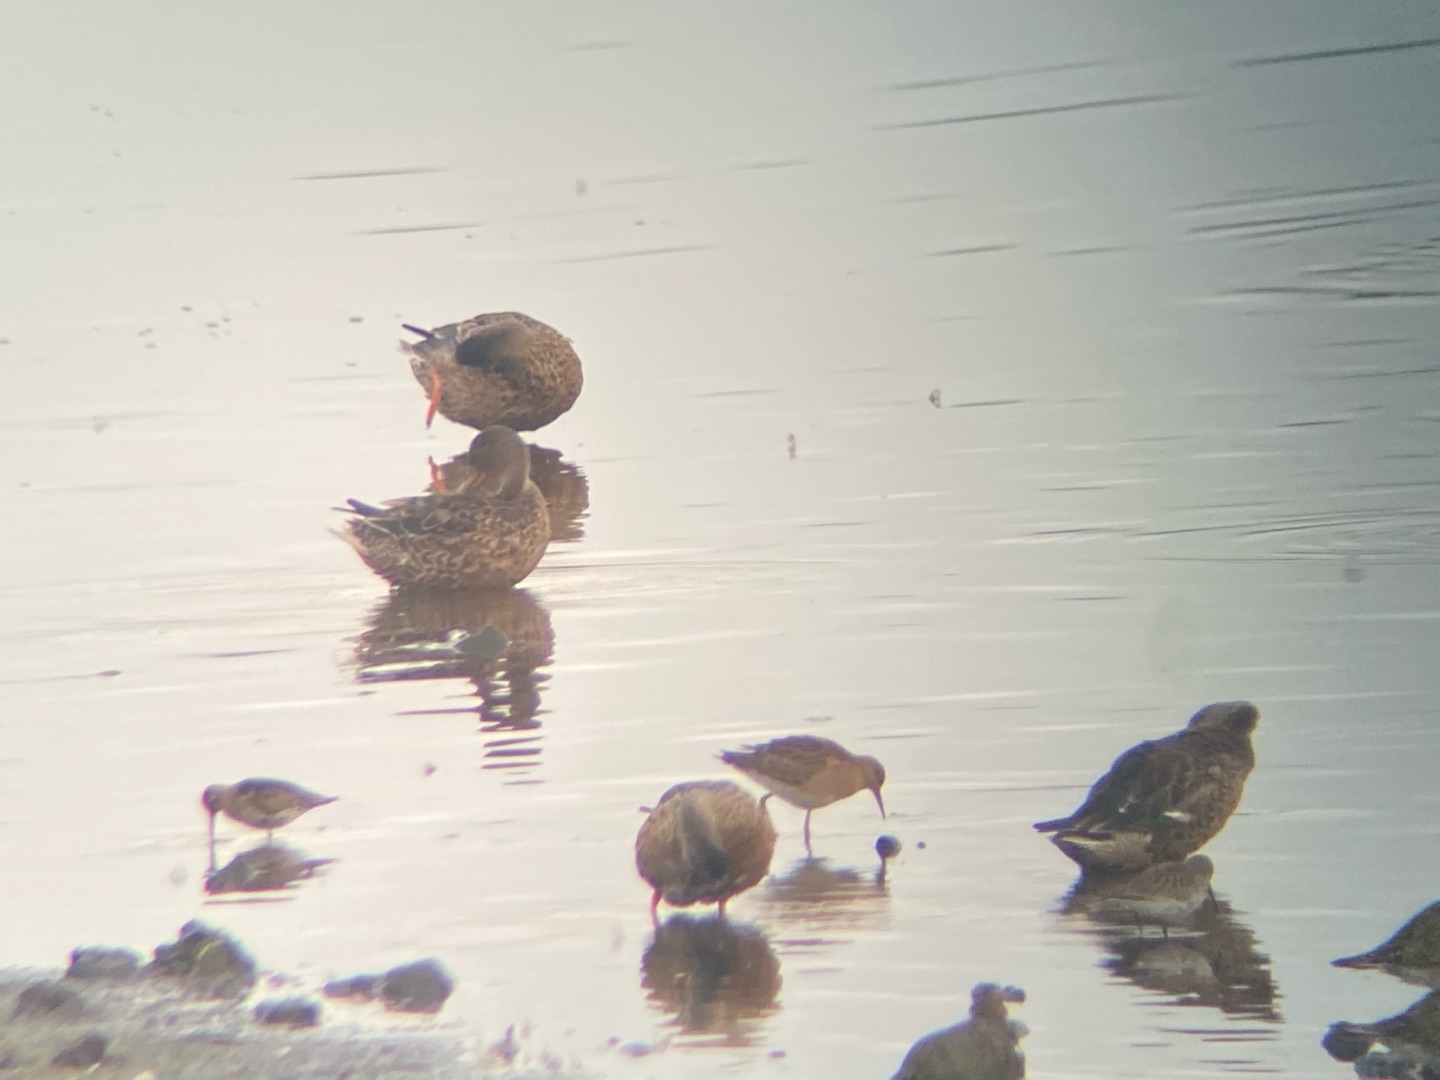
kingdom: Animalia
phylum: Chordata
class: Aves
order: Charadriiformes
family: Scolopacidae
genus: Calidris
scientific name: Calidris pugnax
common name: Brushane
